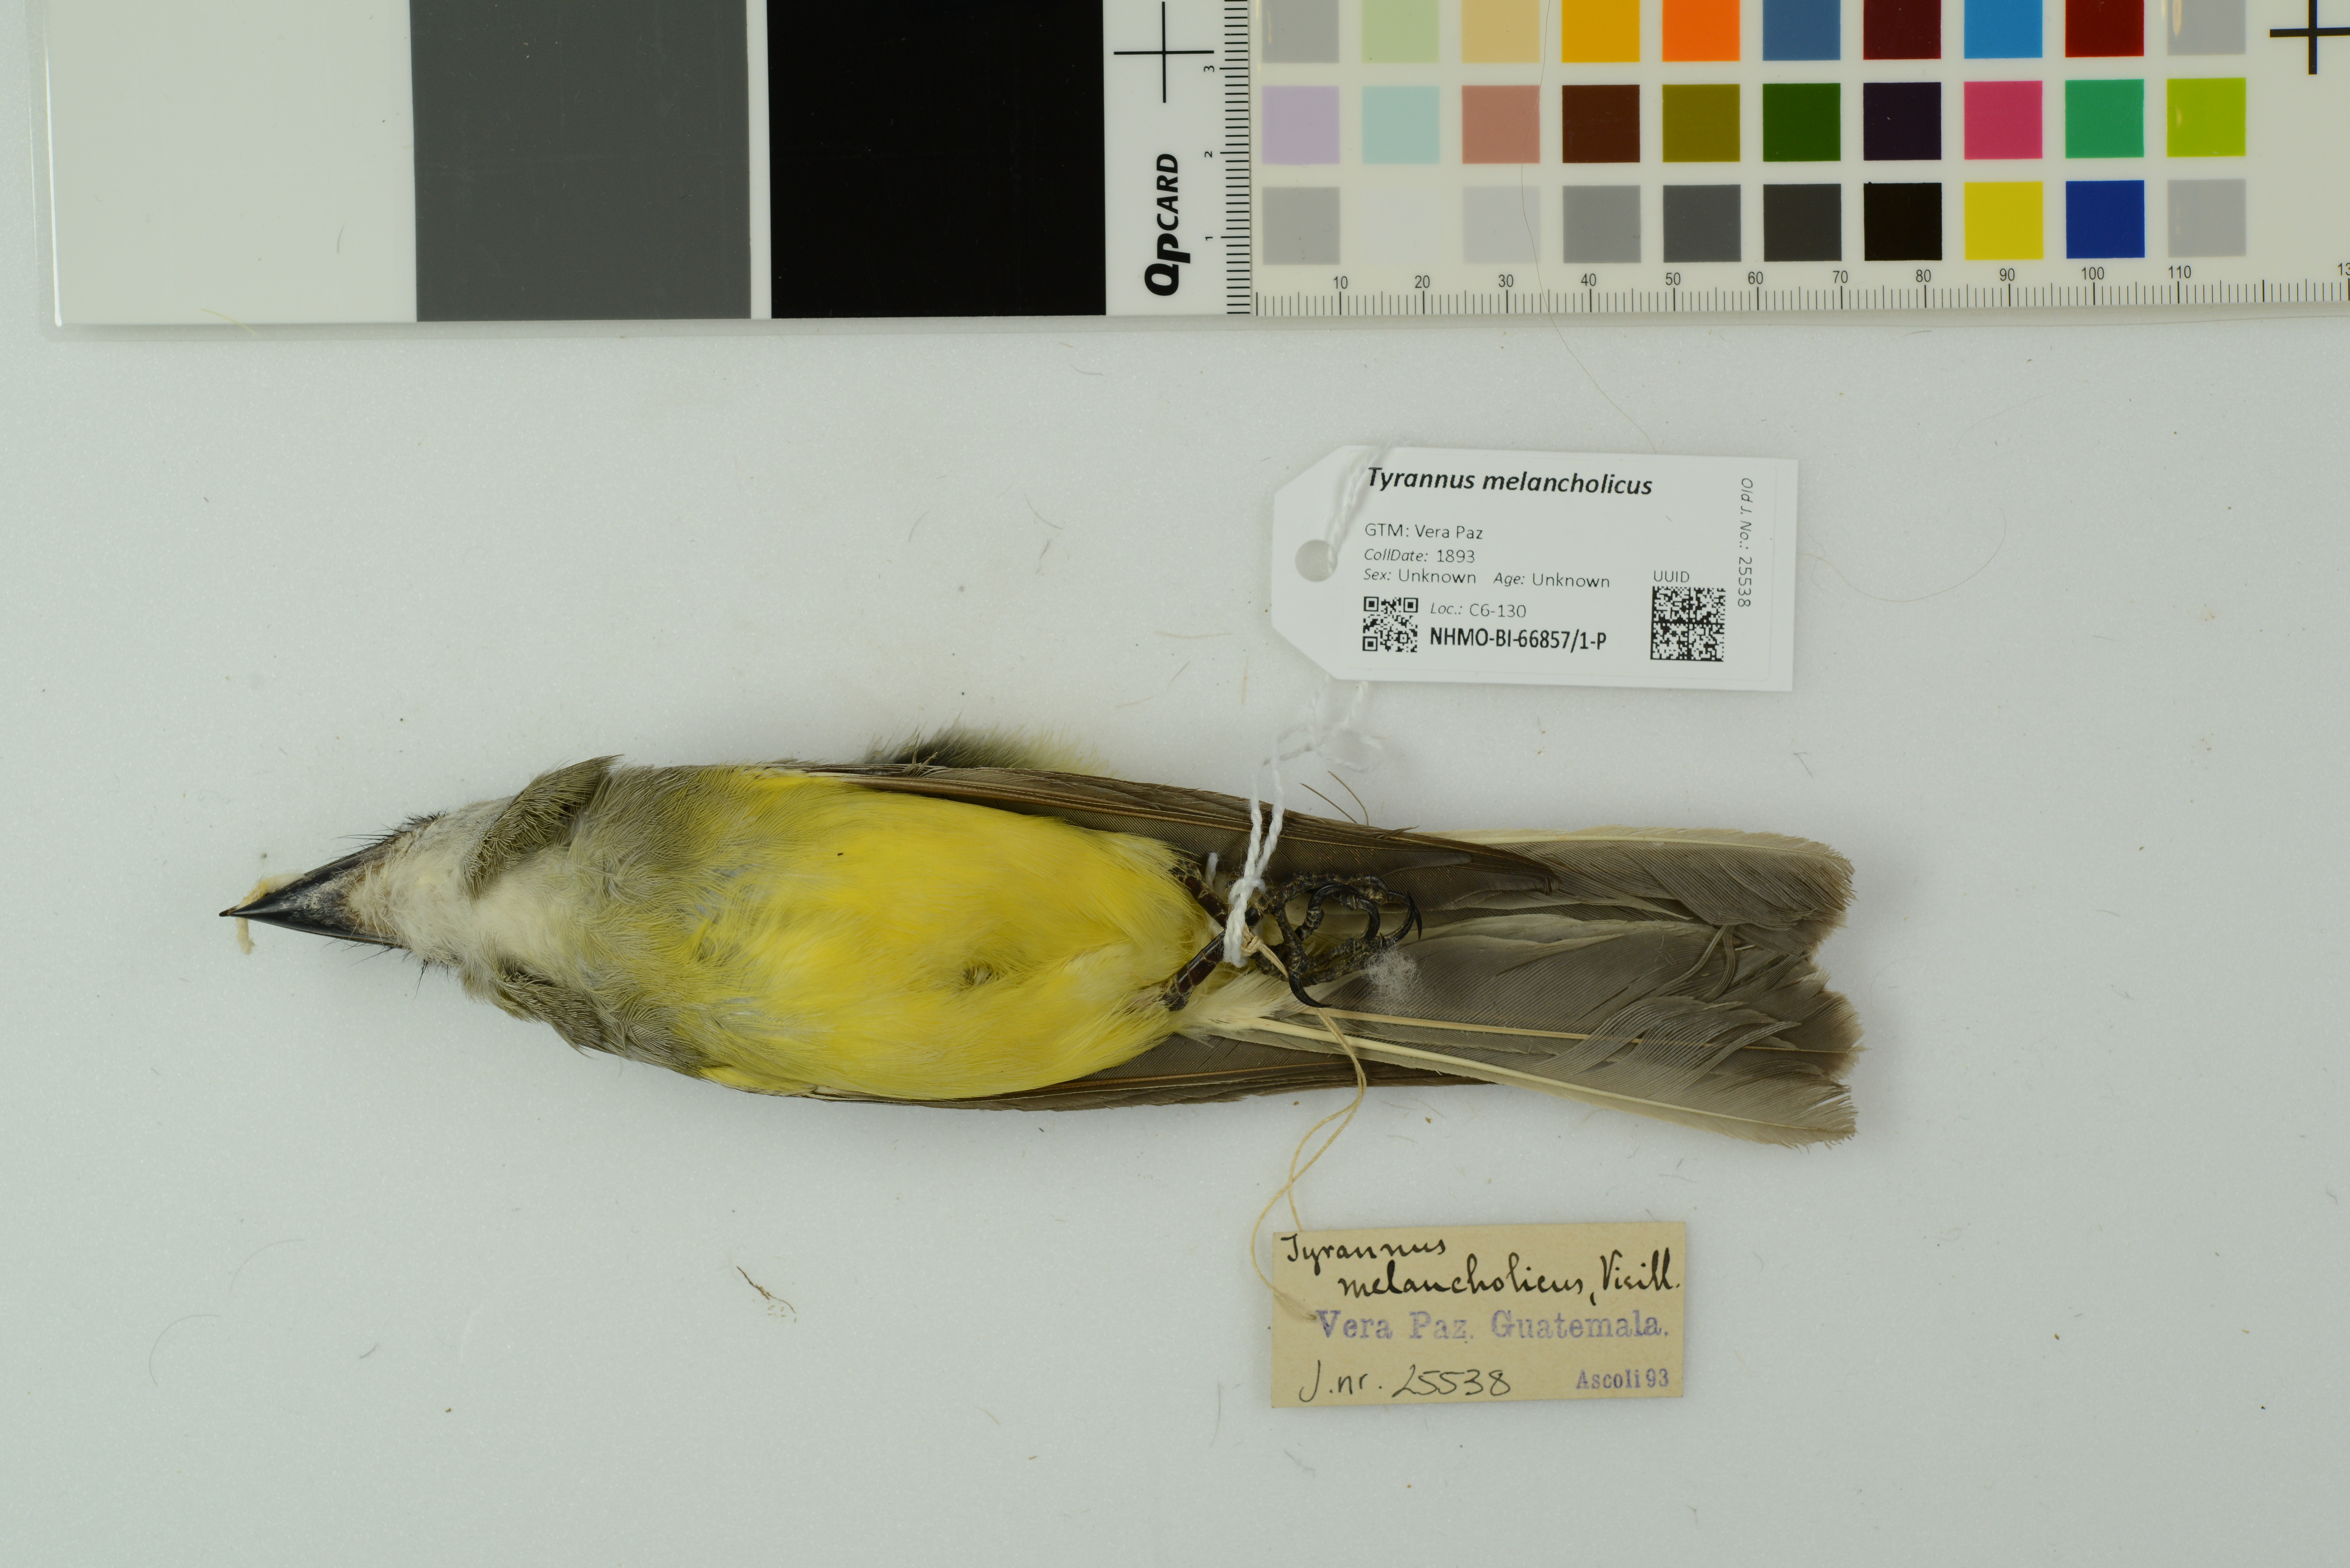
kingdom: Animalia
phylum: Chordata
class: Aves
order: Passeriformes
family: Tyrannidae
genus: Tyrannus
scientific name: Tyrannus melancholicus
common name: Tropical kingbird
